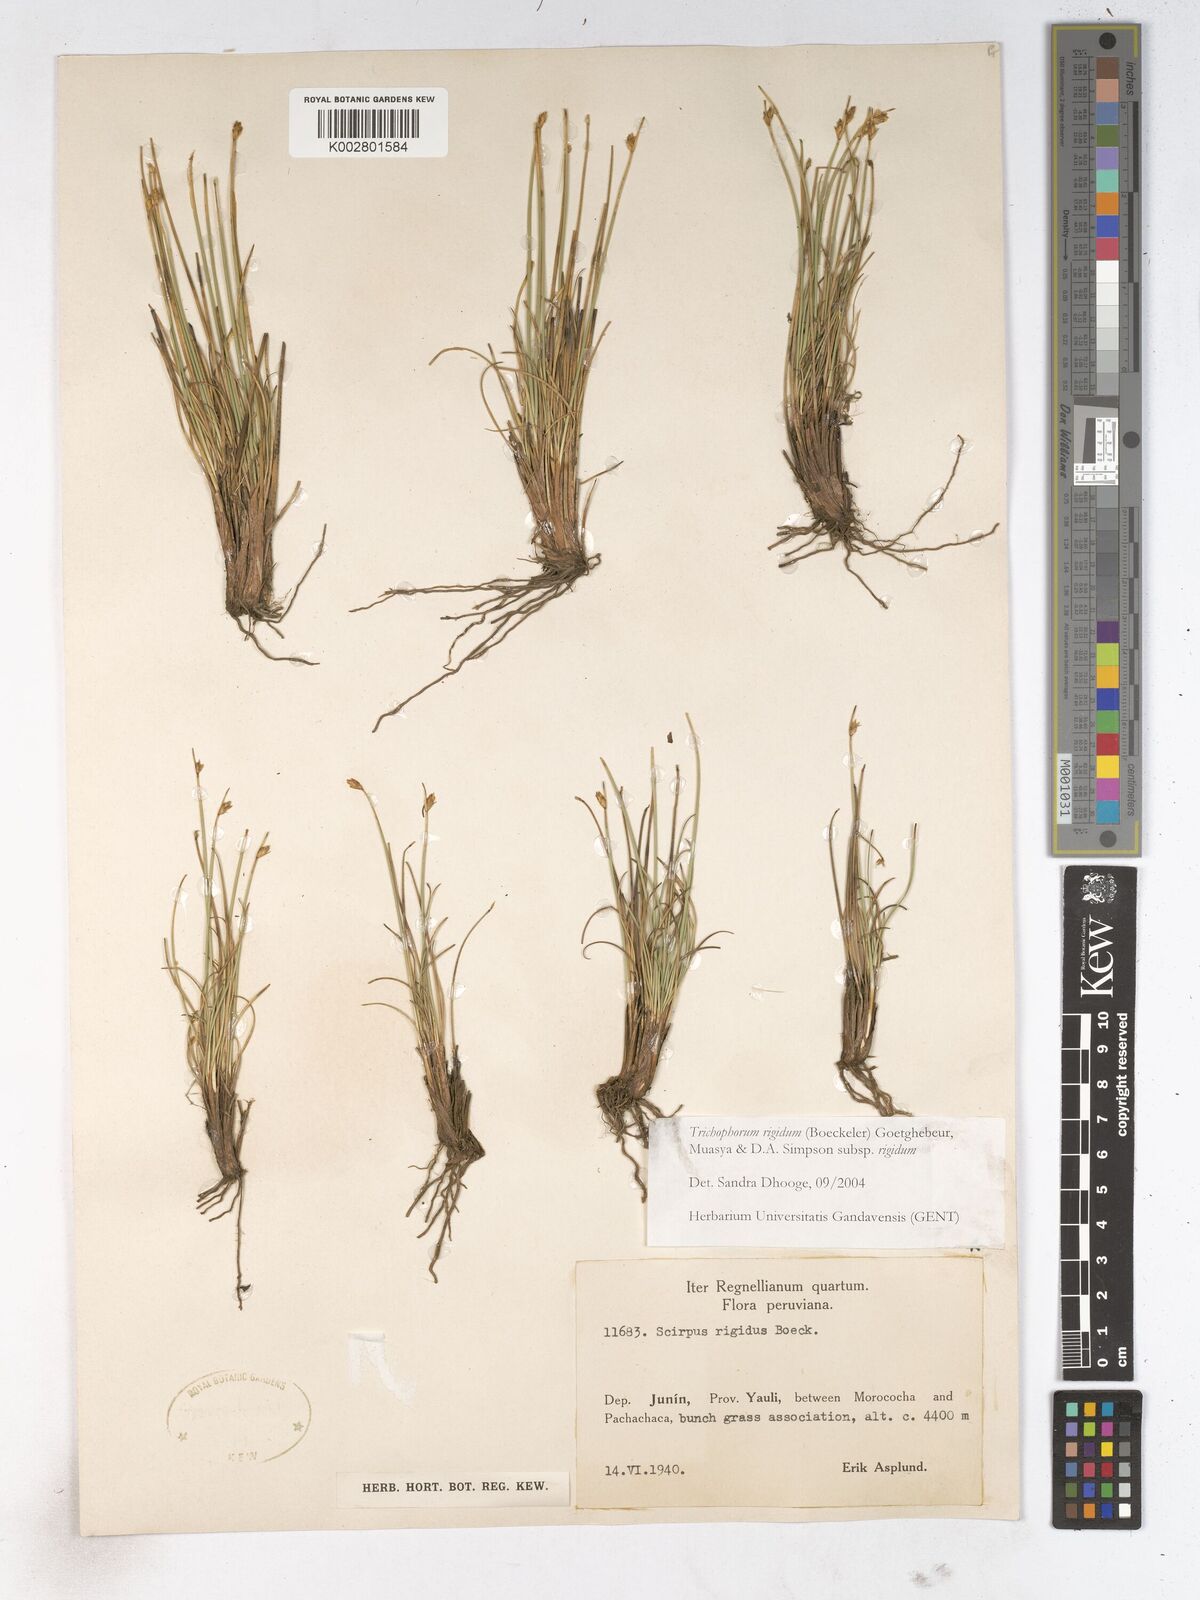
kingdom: Plantae
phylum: Tracheophyta
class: Liliopsida
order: Poales
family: Cyperaceae
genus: Trichophorum
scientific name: Trichophorum rigidum
